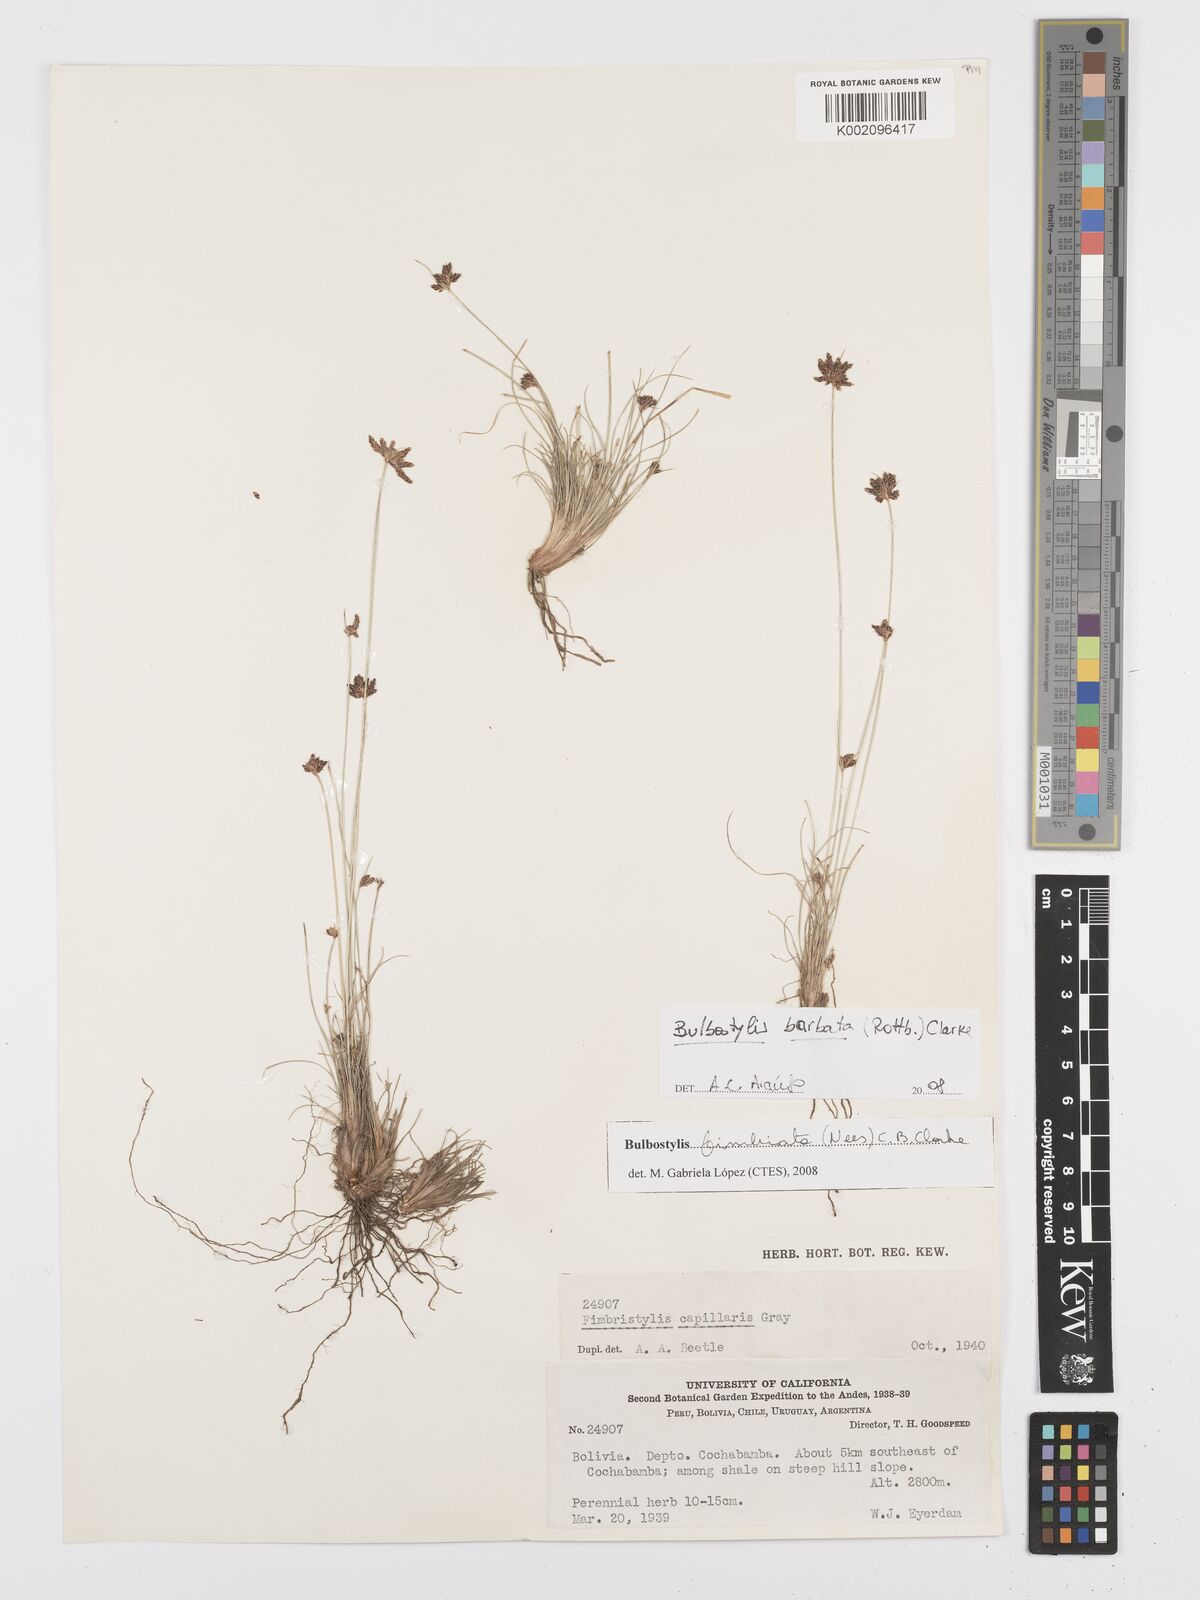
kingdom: Plantae
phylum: Tracheophyta
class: Liliopsida
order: Poales
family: Cyperaceae
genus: Bulbostylis
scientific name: Bulbostylis barbata
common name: Watergrass
